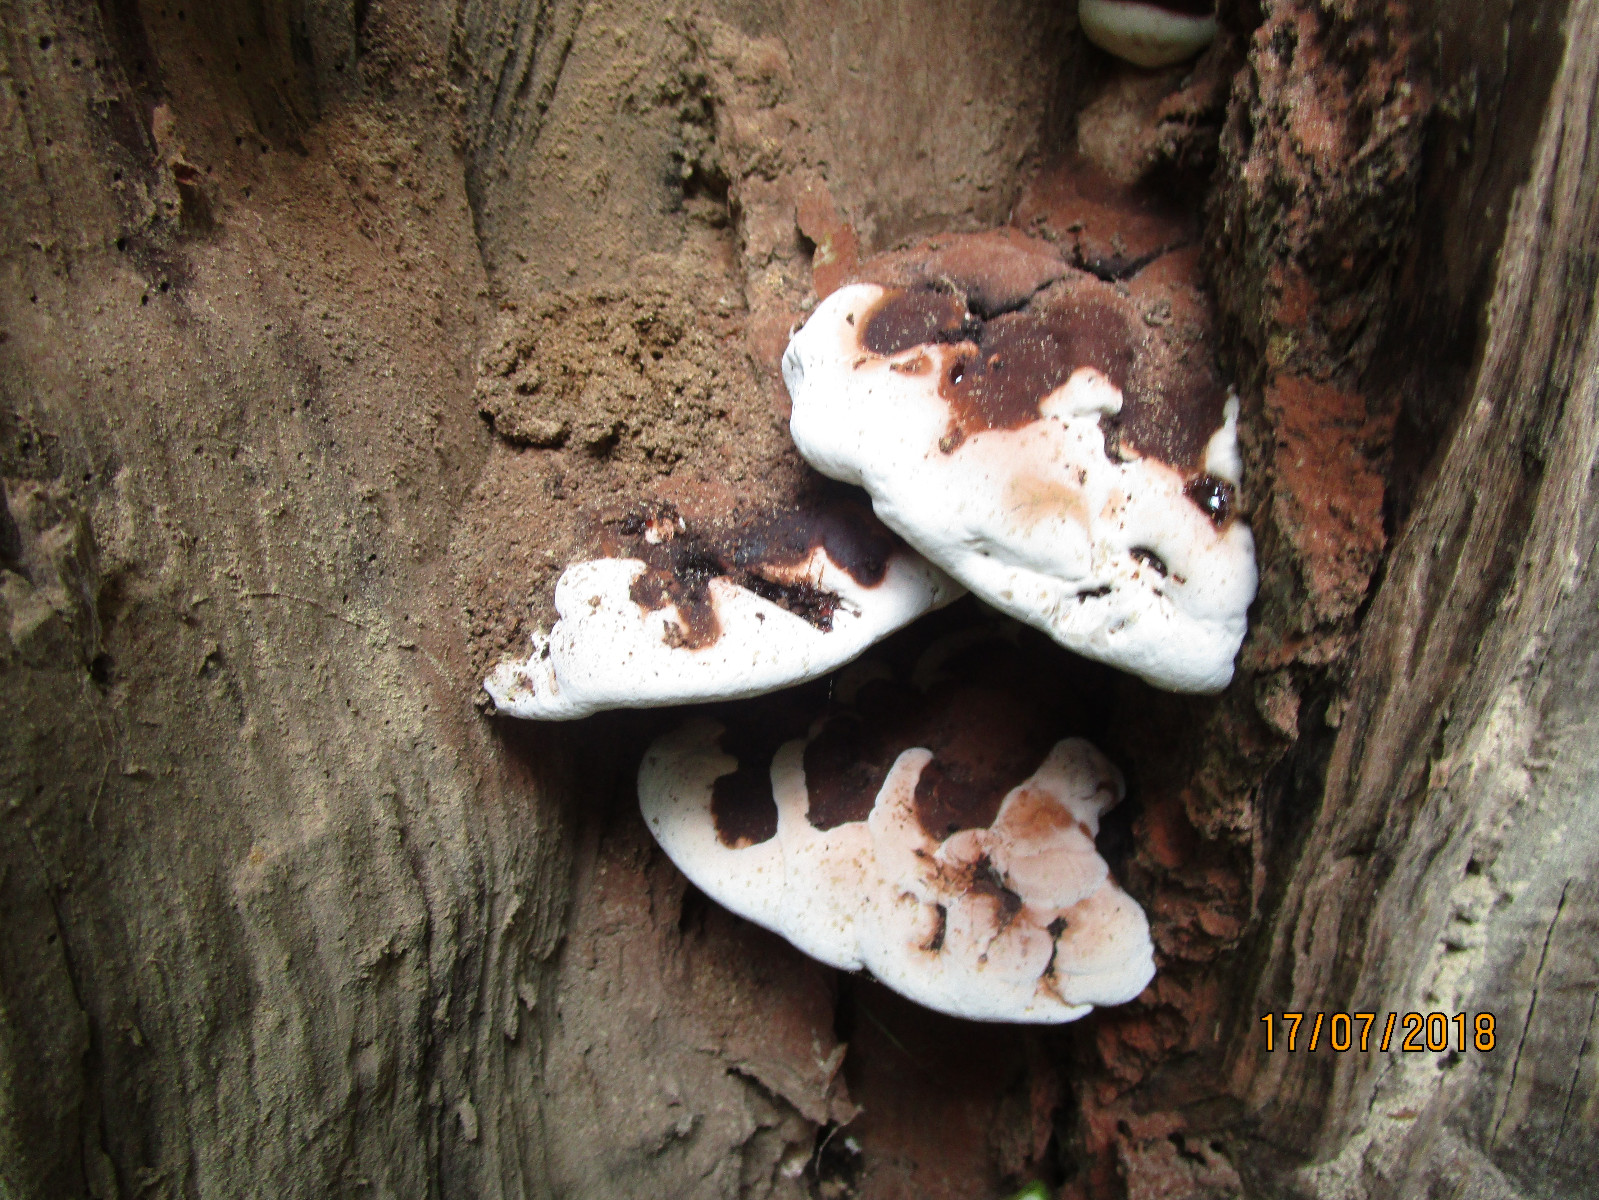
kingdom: Fungi
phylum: Basidiomycota
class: Agaricomycetes
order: Polyporales
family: Polyporaceae
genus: Ganoderma
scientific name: Ganoderma adspersum
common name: grov lakporesvamp
